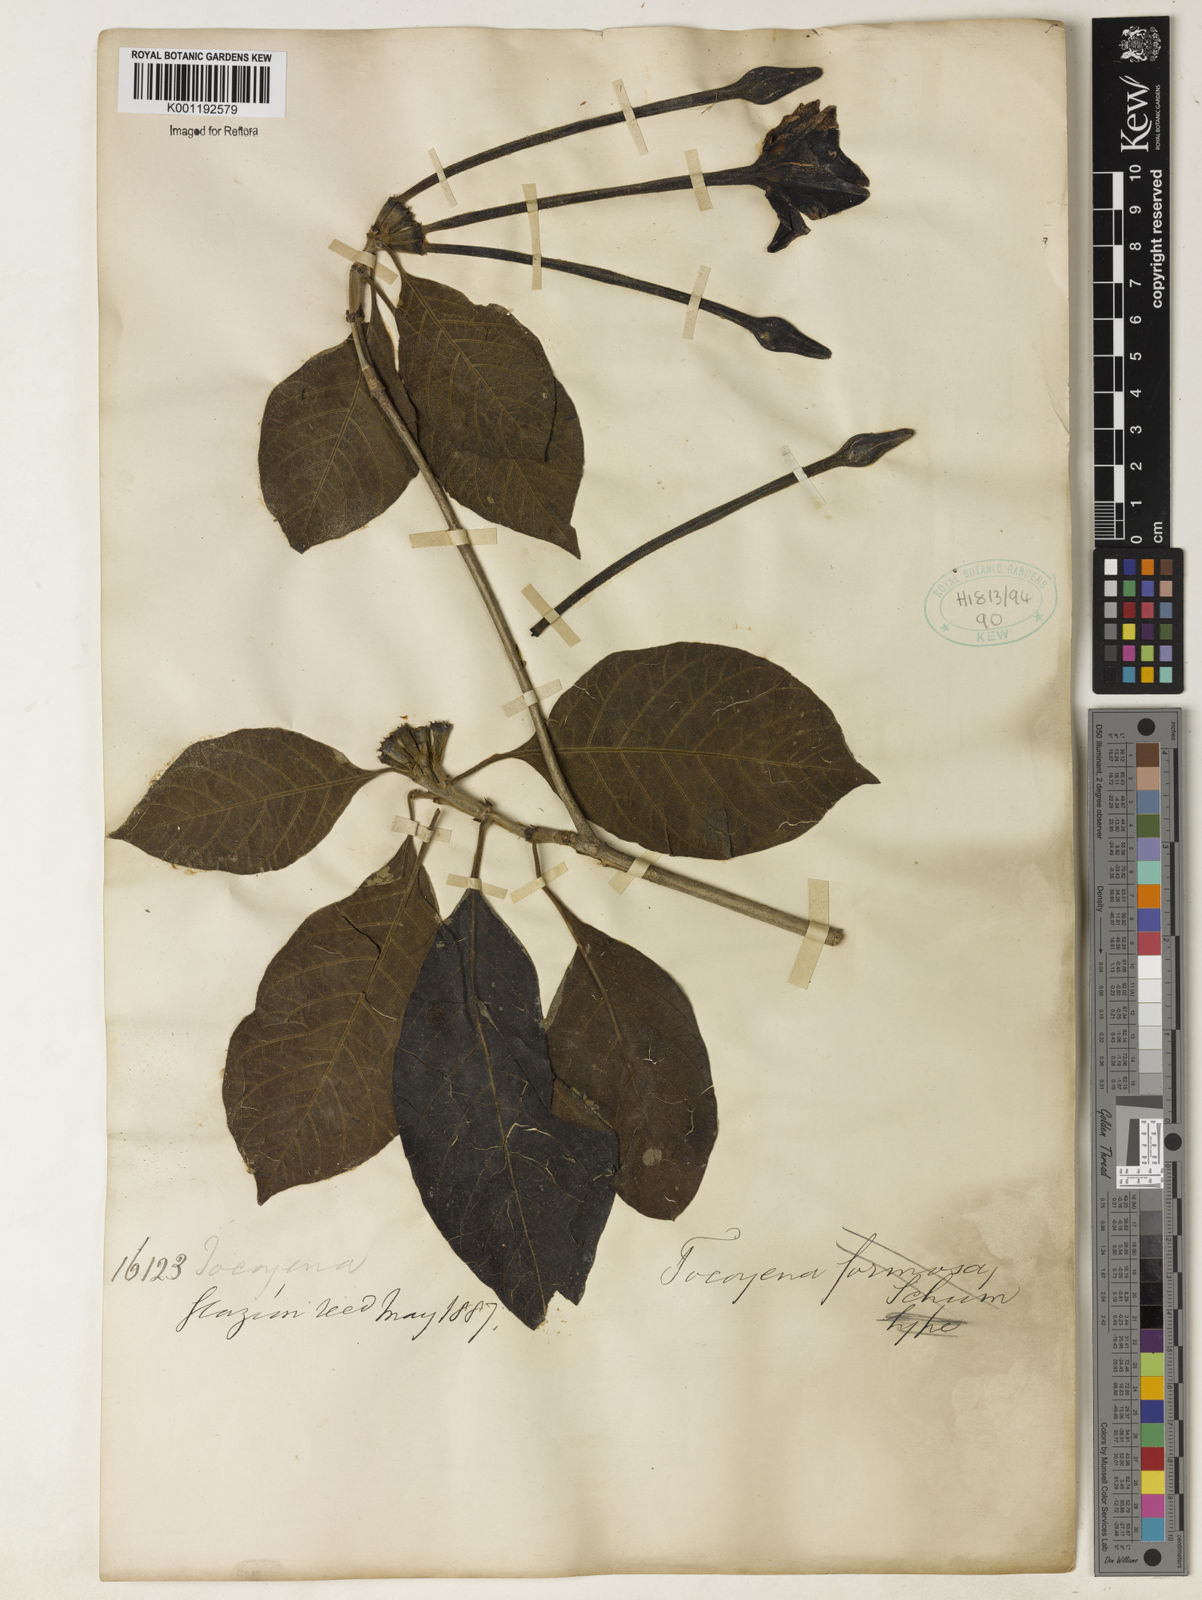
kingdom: Plantae
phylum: Tracheophyta
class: Magnoliopsida
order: Gentianales
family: Rubiaceae
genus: Tocoyena
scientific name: Tocoyena
